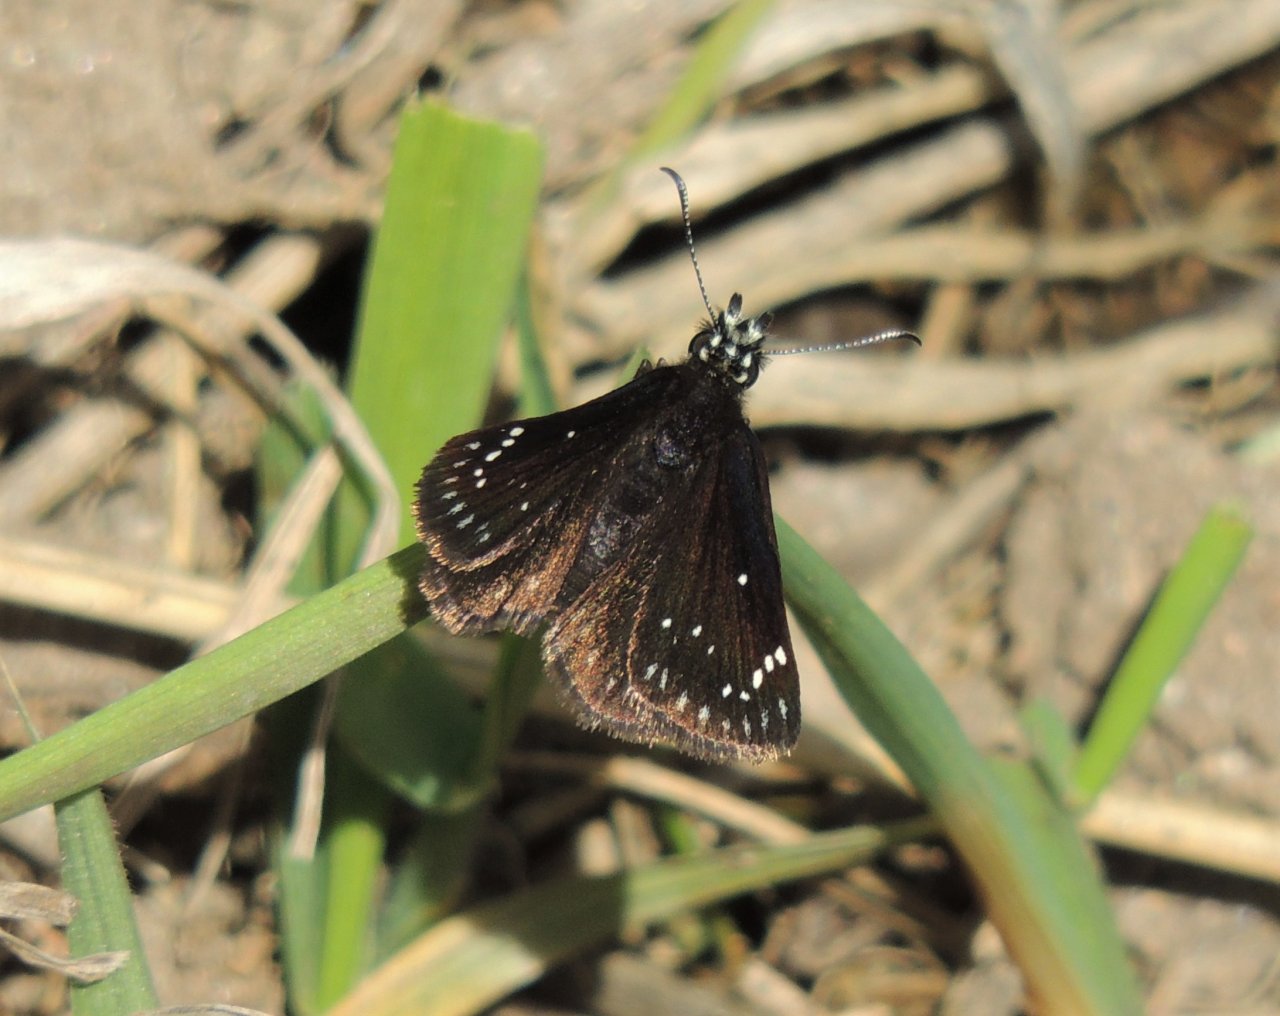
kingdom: Animalia
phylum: Arthropoda
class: Insecta
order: Lepidoptera
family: Hesperiidae
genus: Pholisora
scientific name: Pholisora catullus
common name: Common Sootywing
